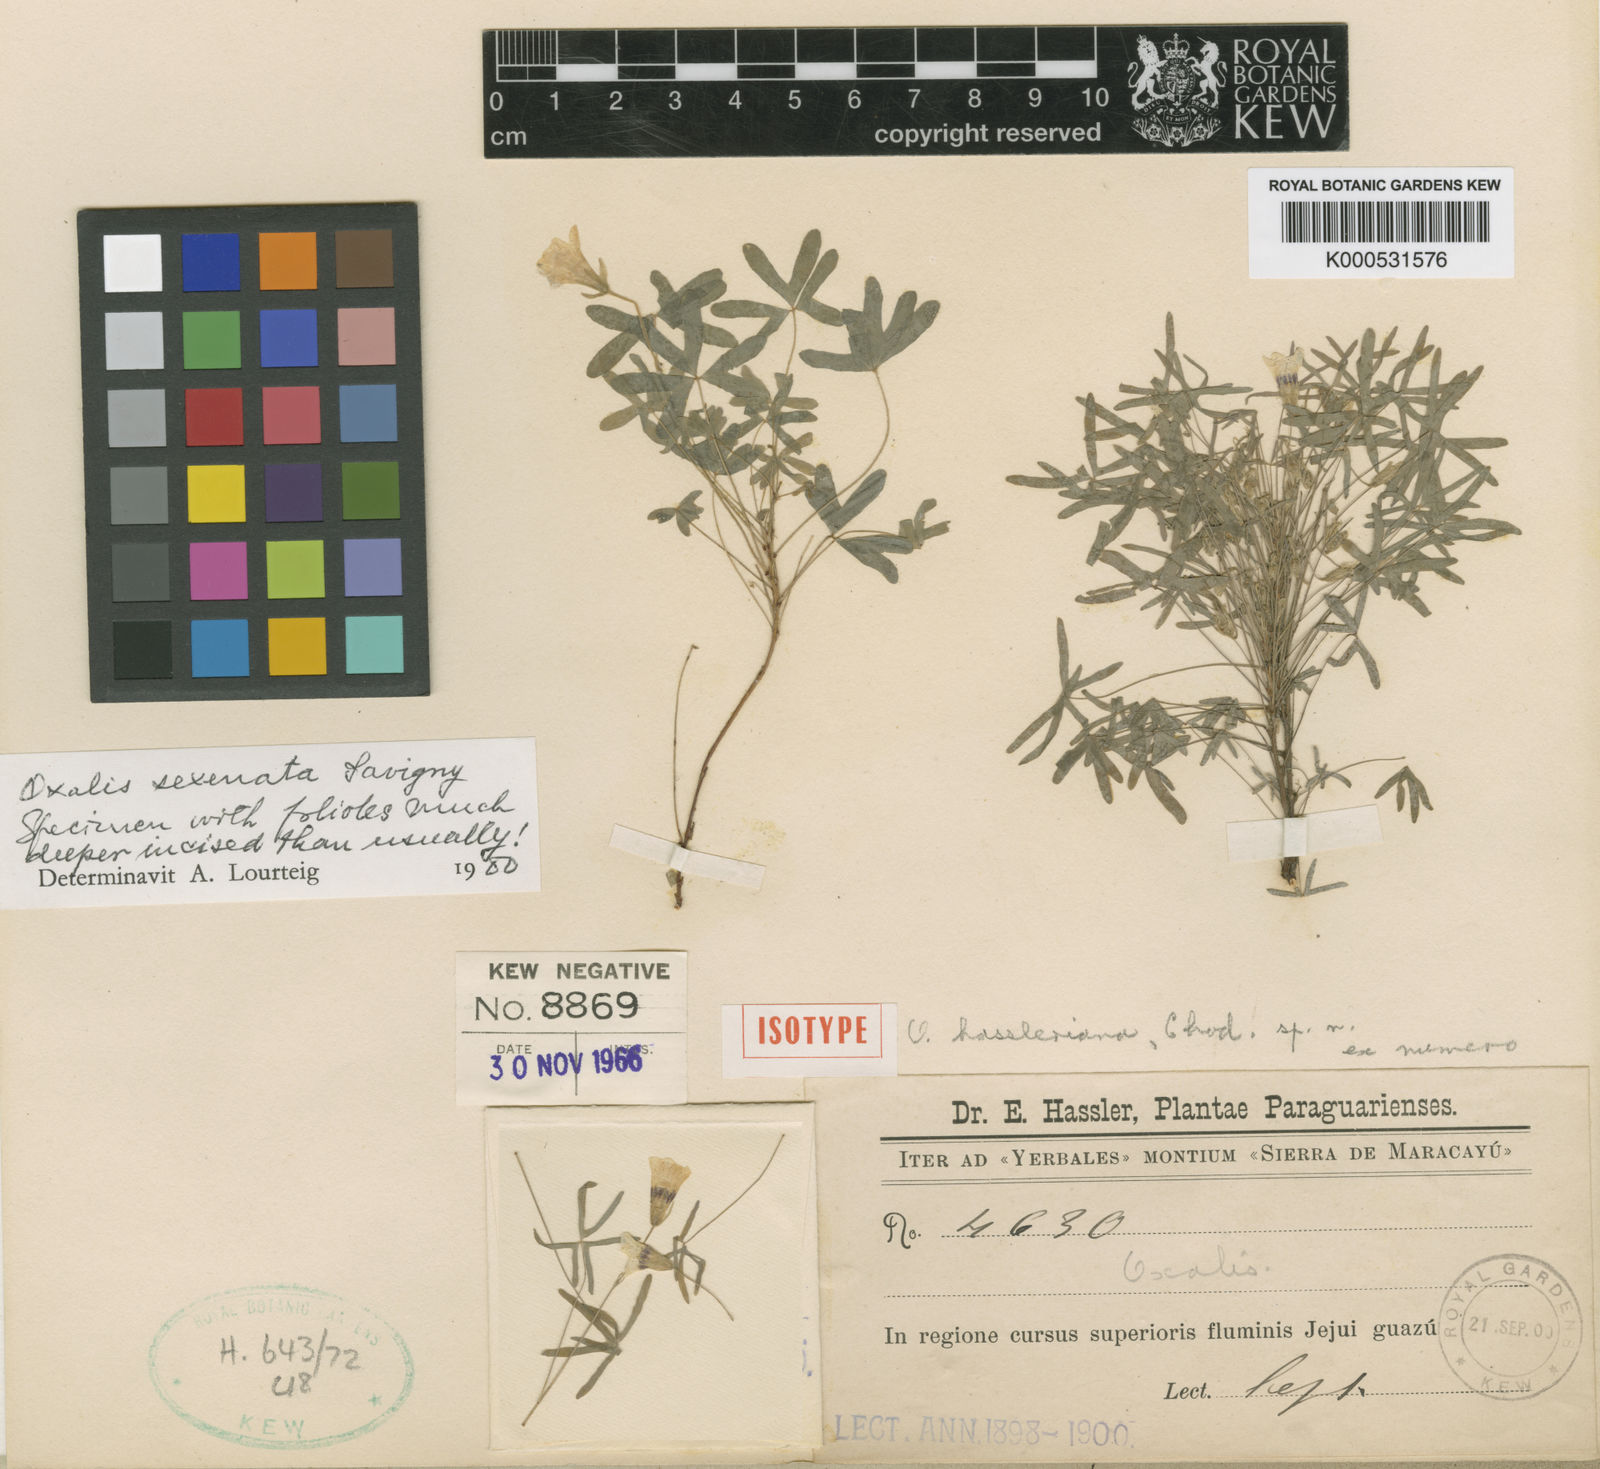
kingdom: Plantae
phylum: Tracheophyta
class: Magnoliopsida
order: Oxalidales
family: Oxalidaceae
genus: Oxalis
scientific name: Oxalis conorrhiza
